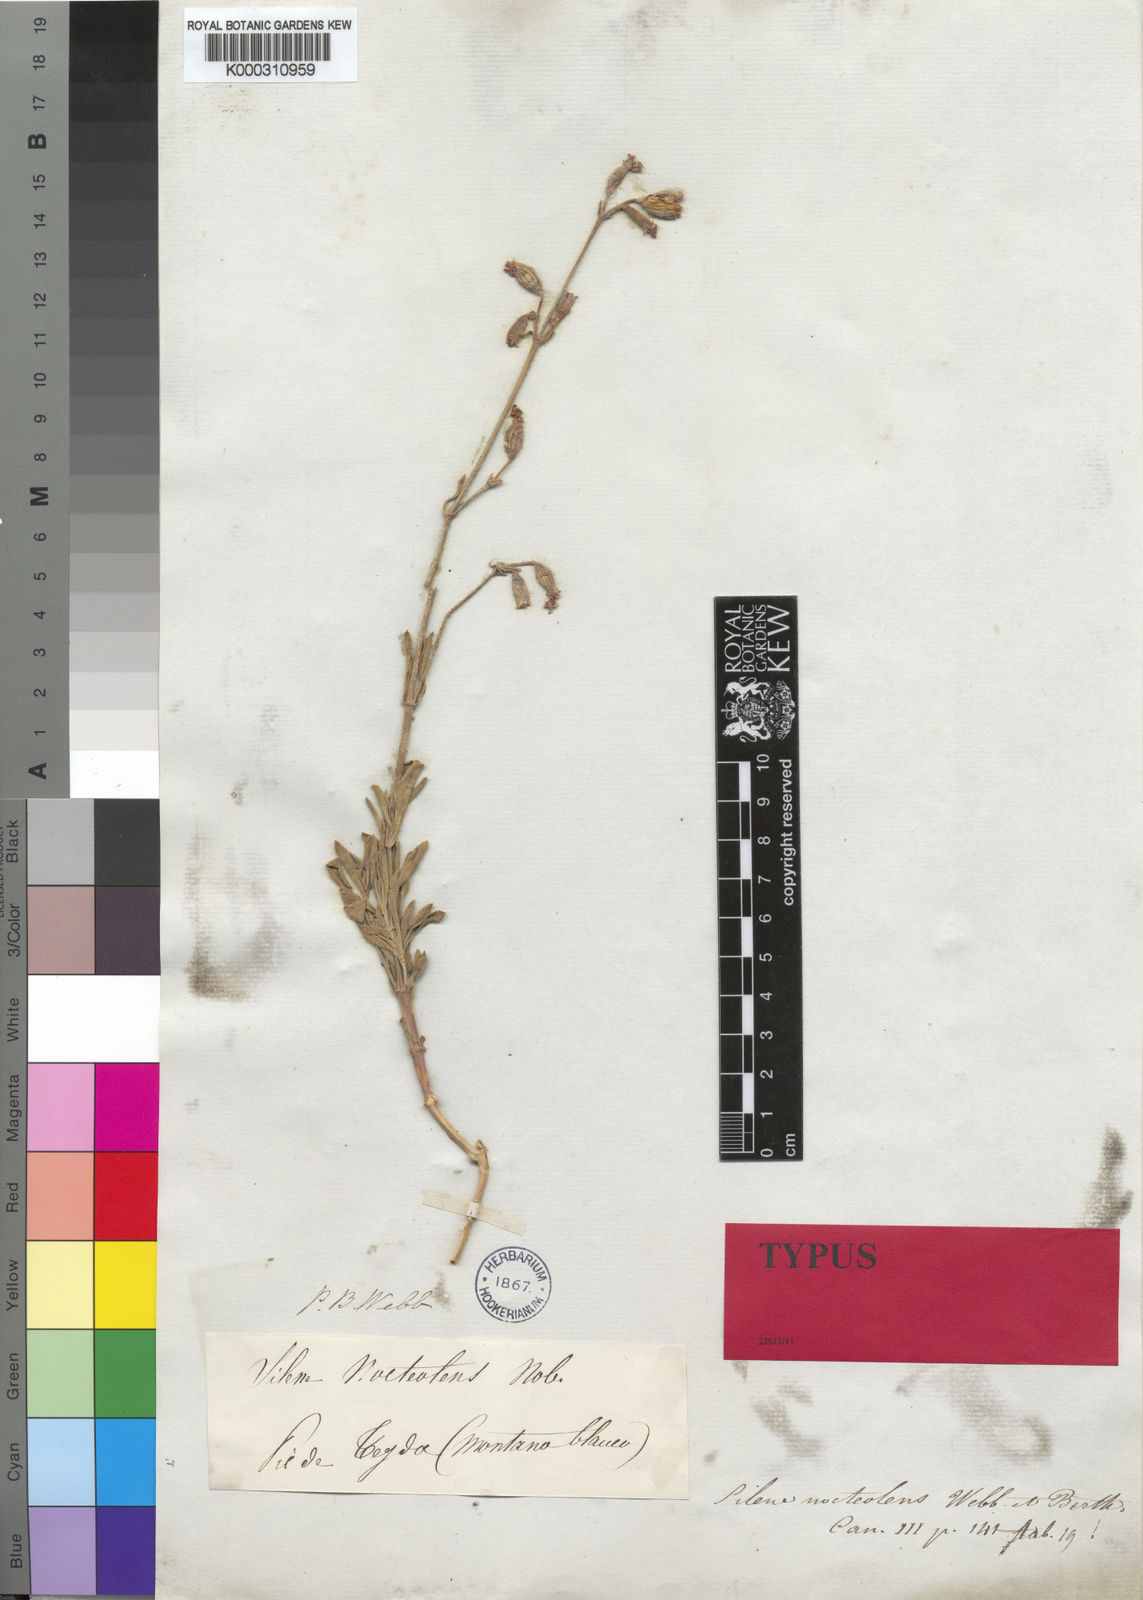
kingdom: Plantae
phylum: Tracheophyta
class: Magnoliopsida
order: Caryophyllales
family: Caryophyllaceae
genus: Silene
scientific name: Silene nocteolens
